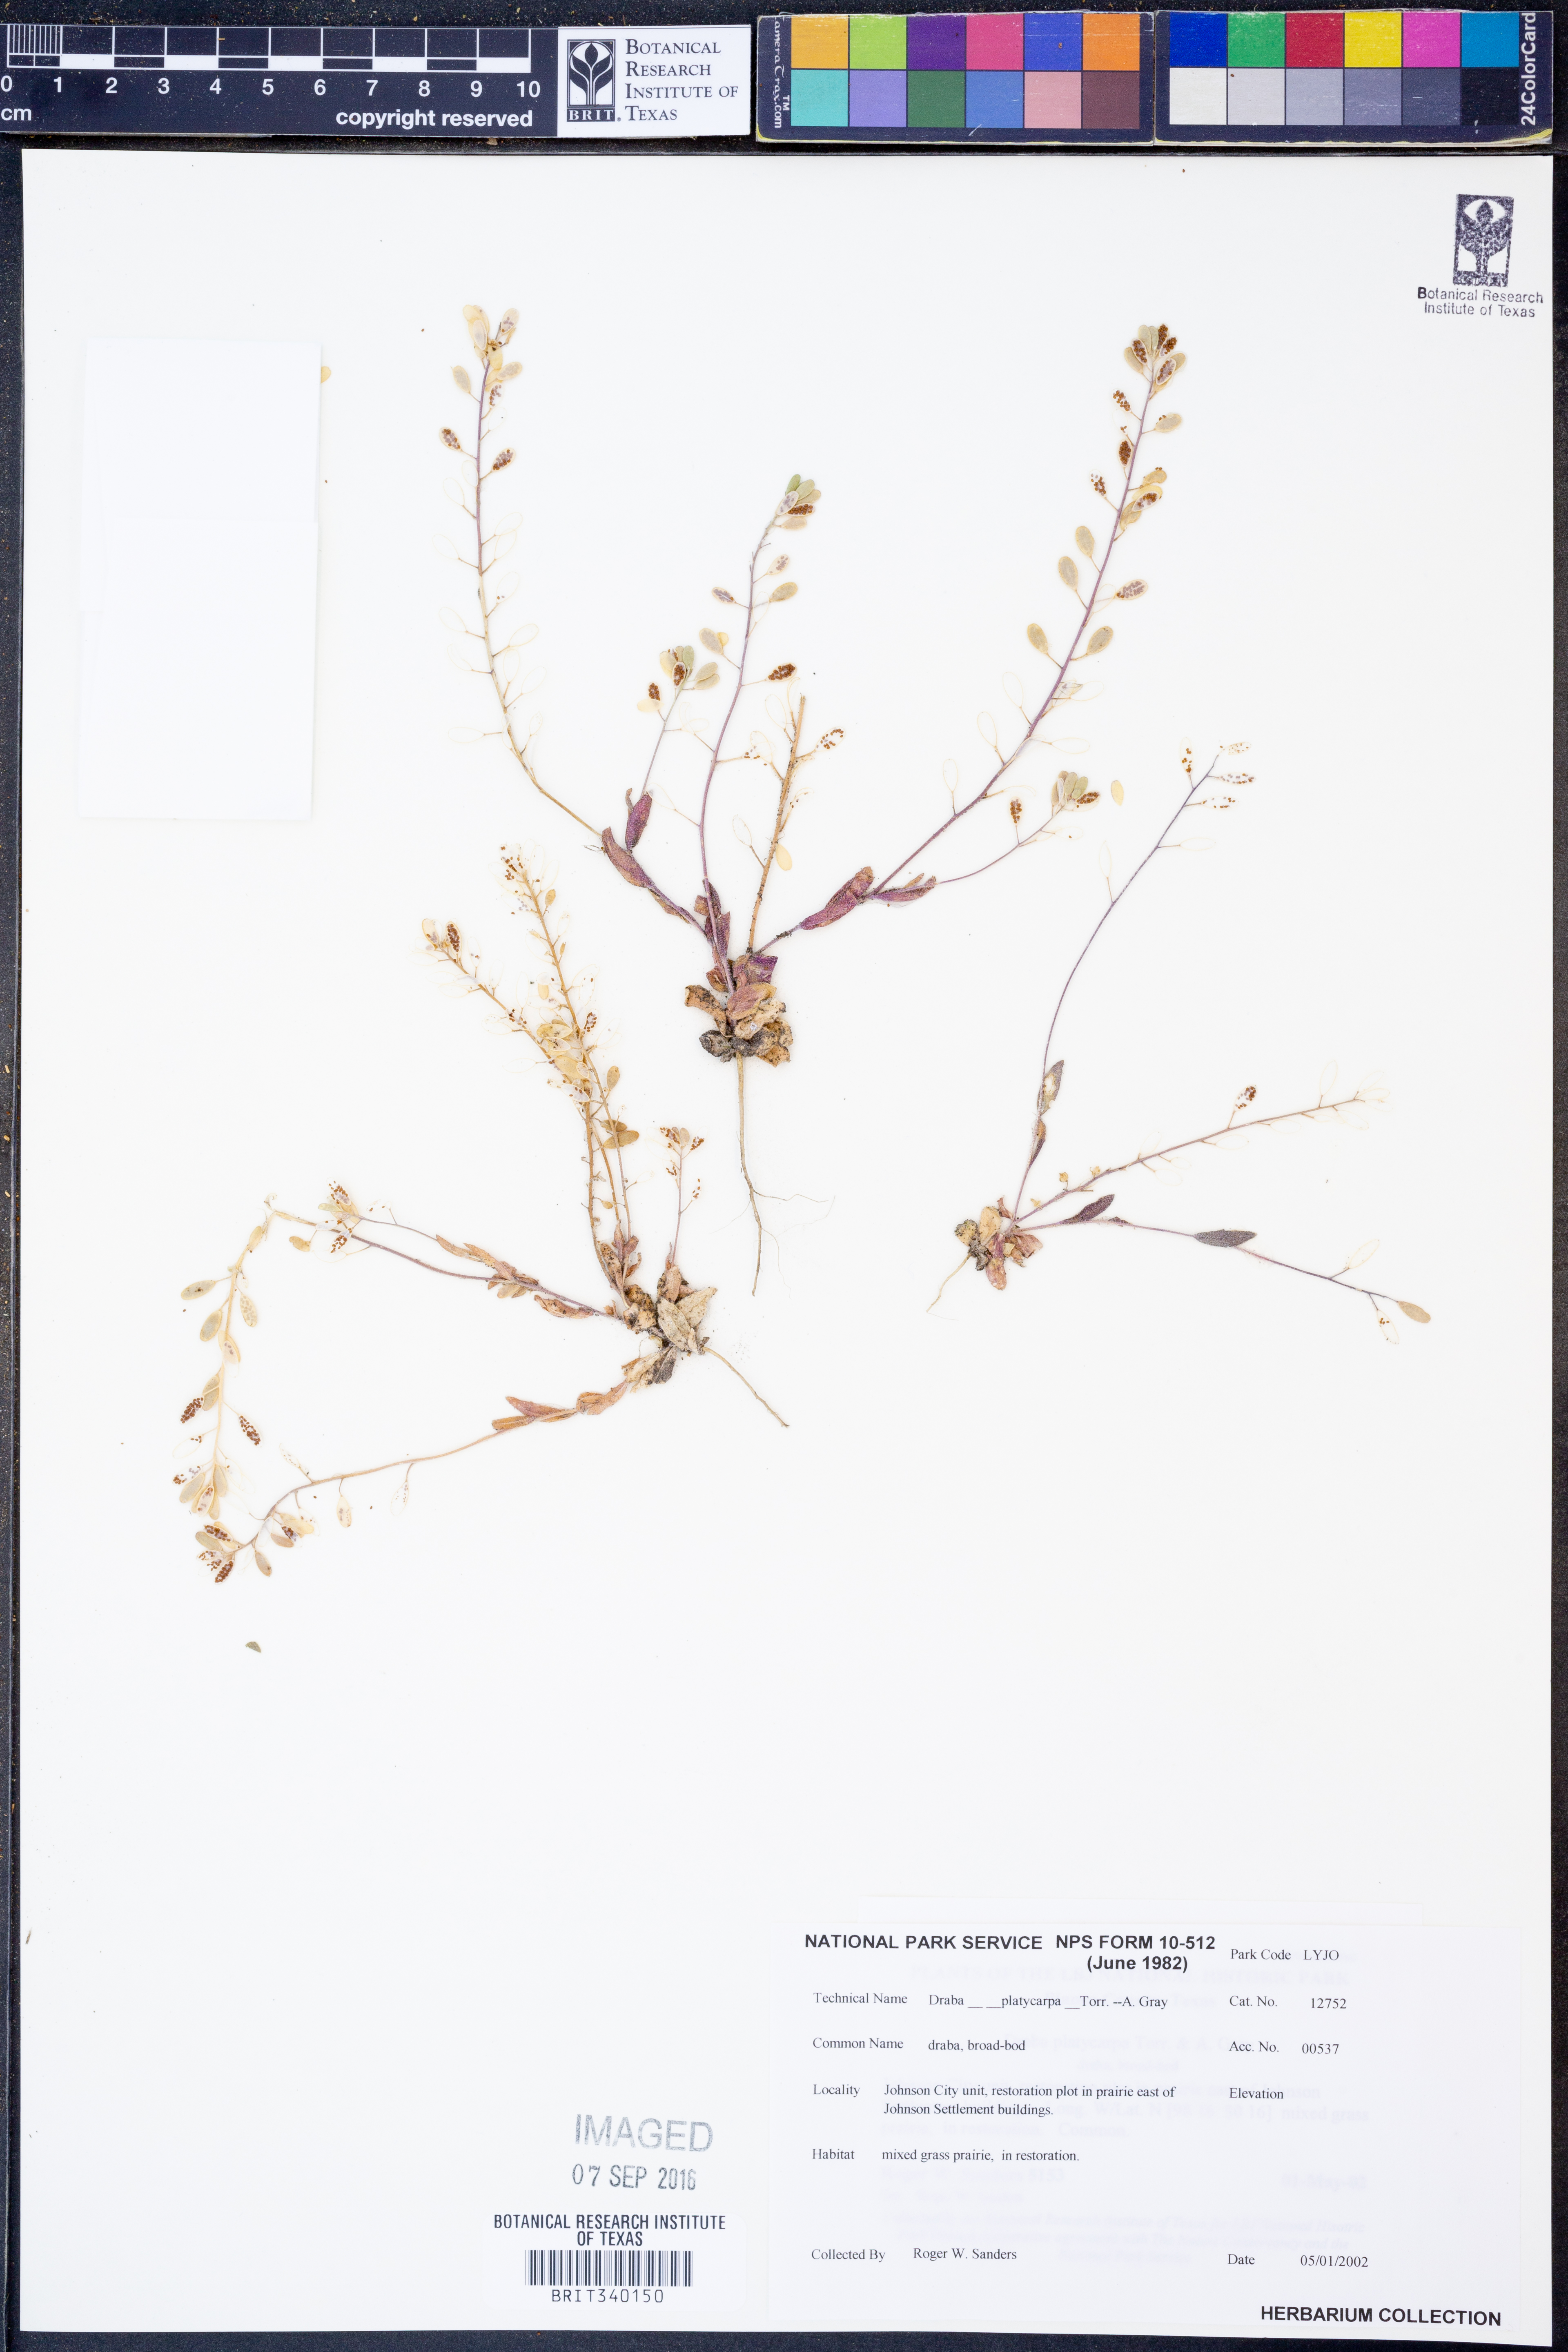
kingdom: Plantae
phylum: Tracheophyta
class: Magnoliopsida
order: Brassicales
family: Brassicaceae
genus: Tomostima
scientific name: Tomostima platycarpa
